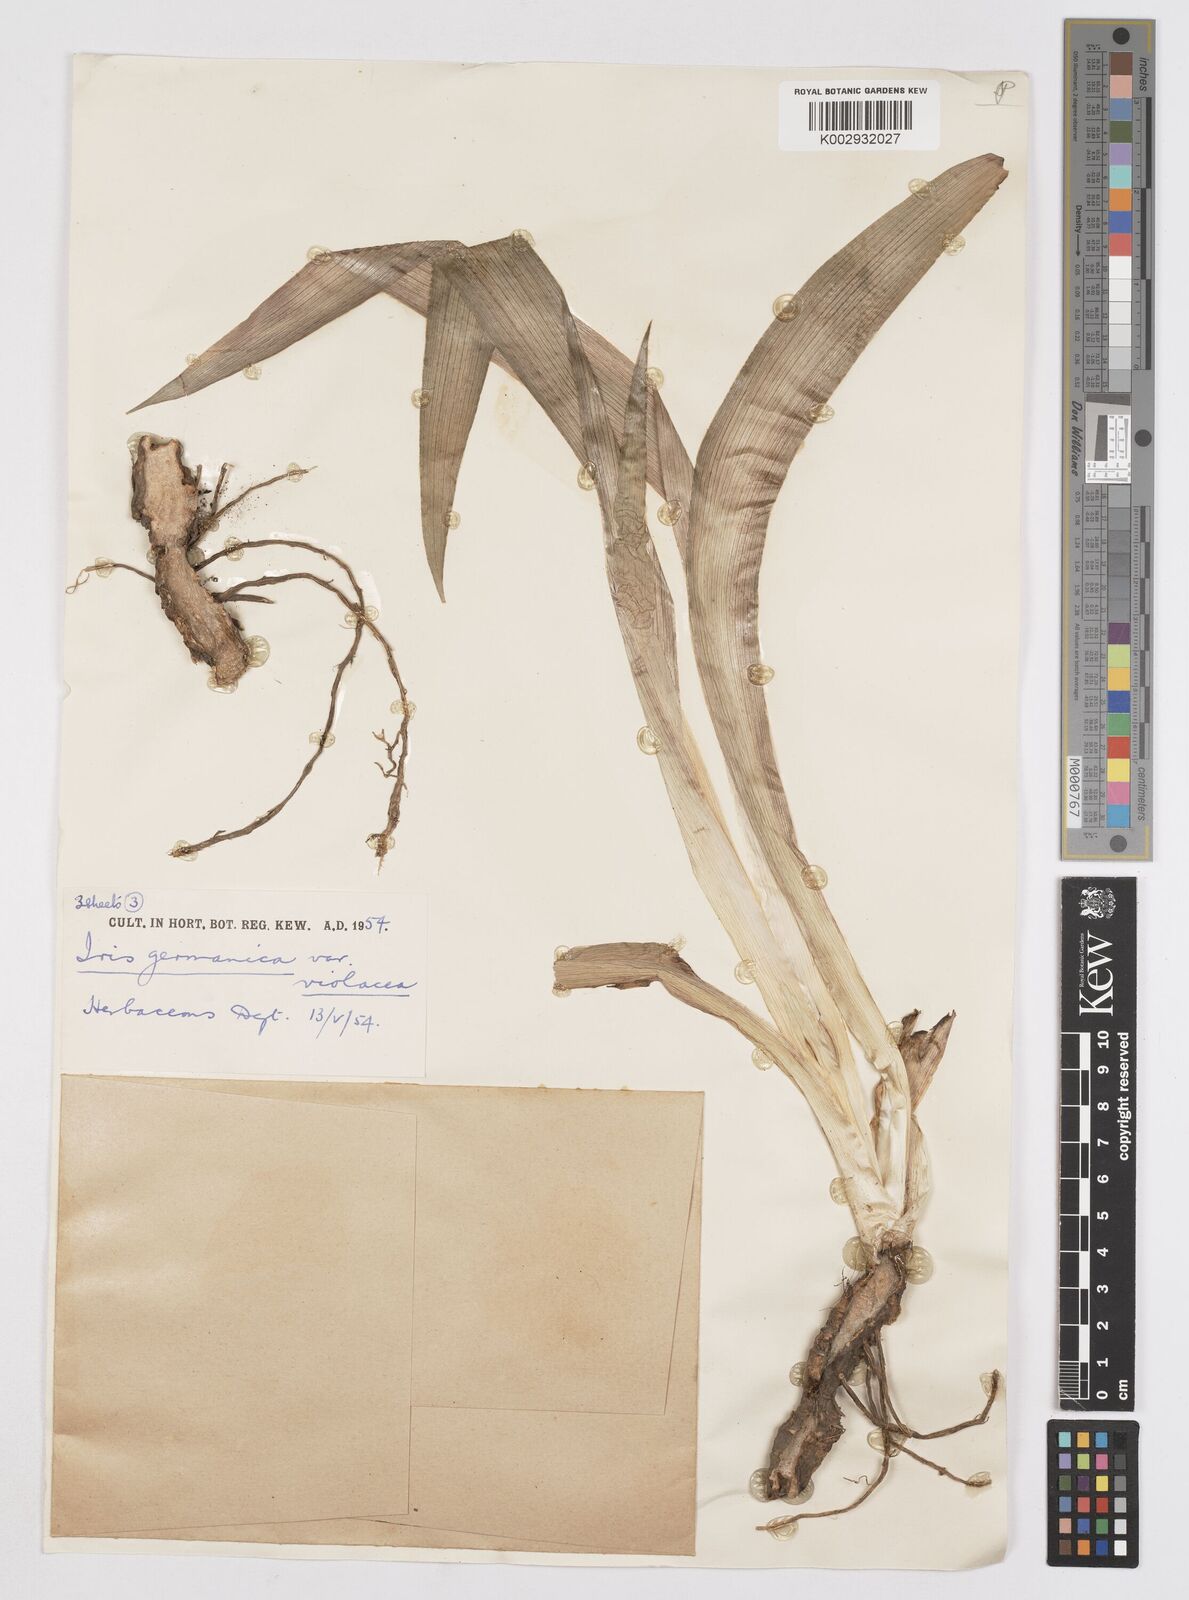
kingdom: Plantae
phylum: Tracheophyta
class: Liliopsida
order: Asparagales
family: Iridaceae
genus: Iris
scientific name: Iris germanica
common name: German iris
